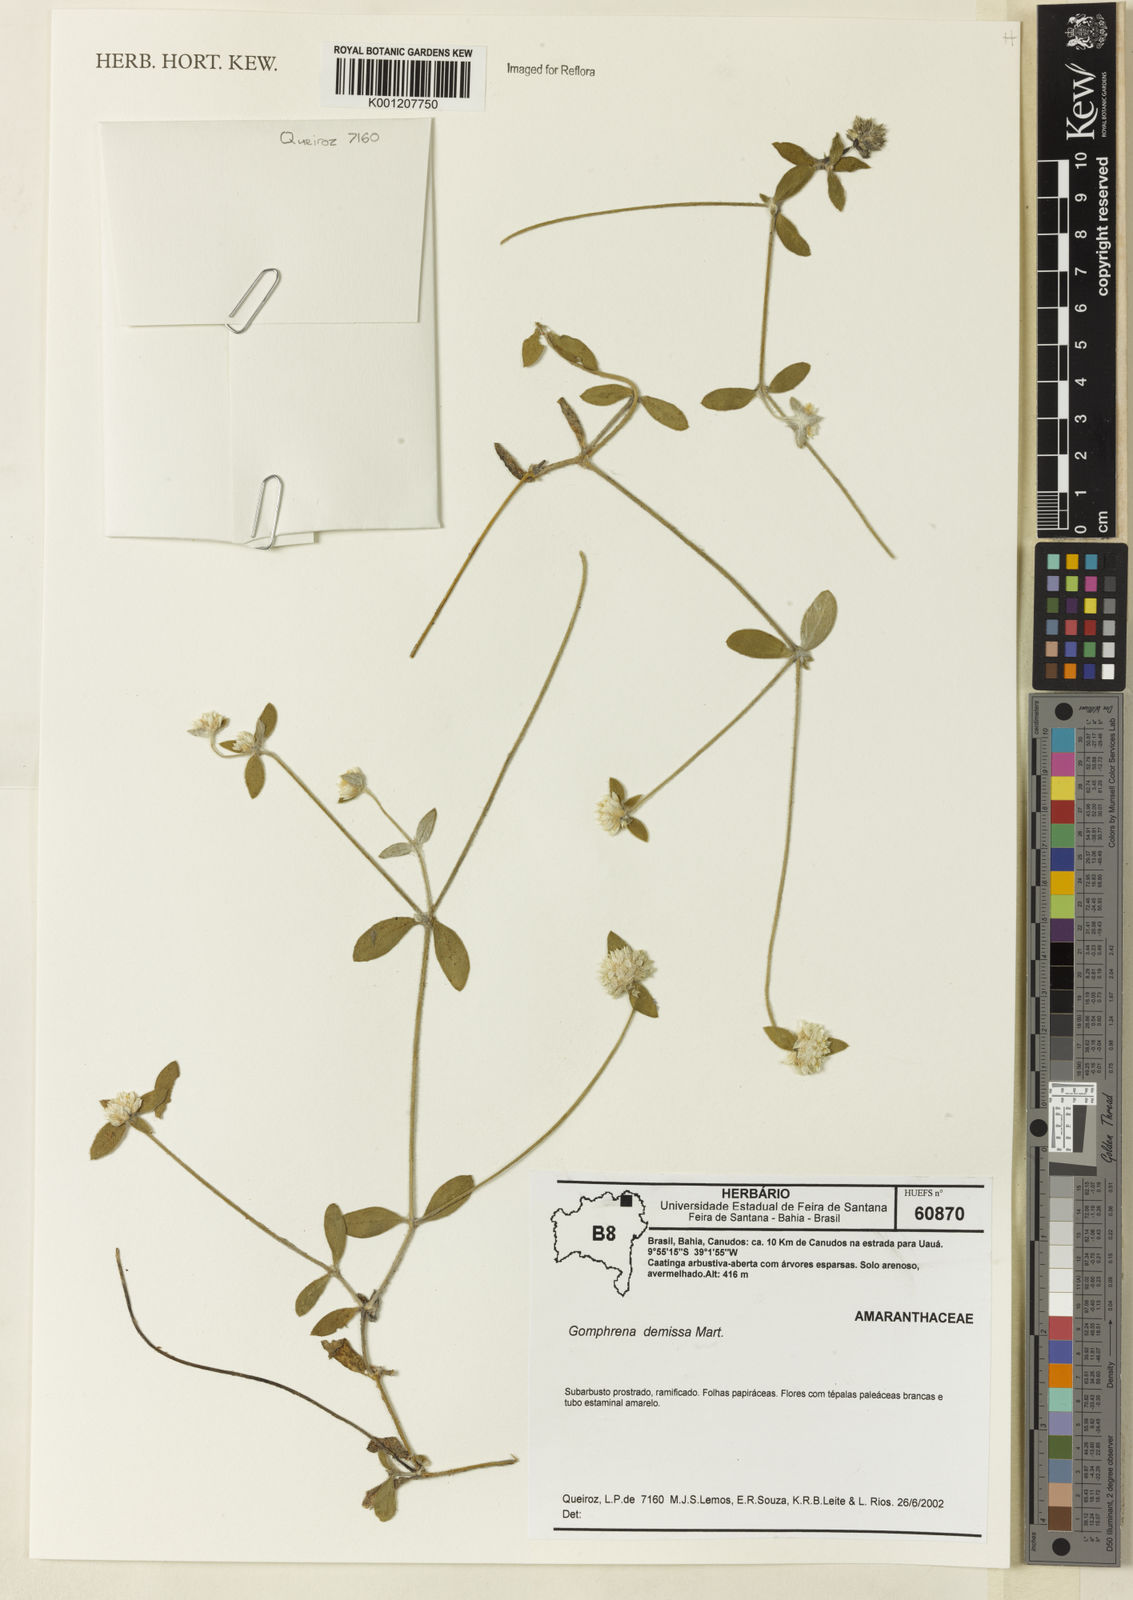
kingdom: Plantae
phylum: Tracheophyta
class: Magnoliopsida
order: Caryophyllales
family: Amaranthaceae
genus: Gomphrena
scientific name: Gomphrena demissa
